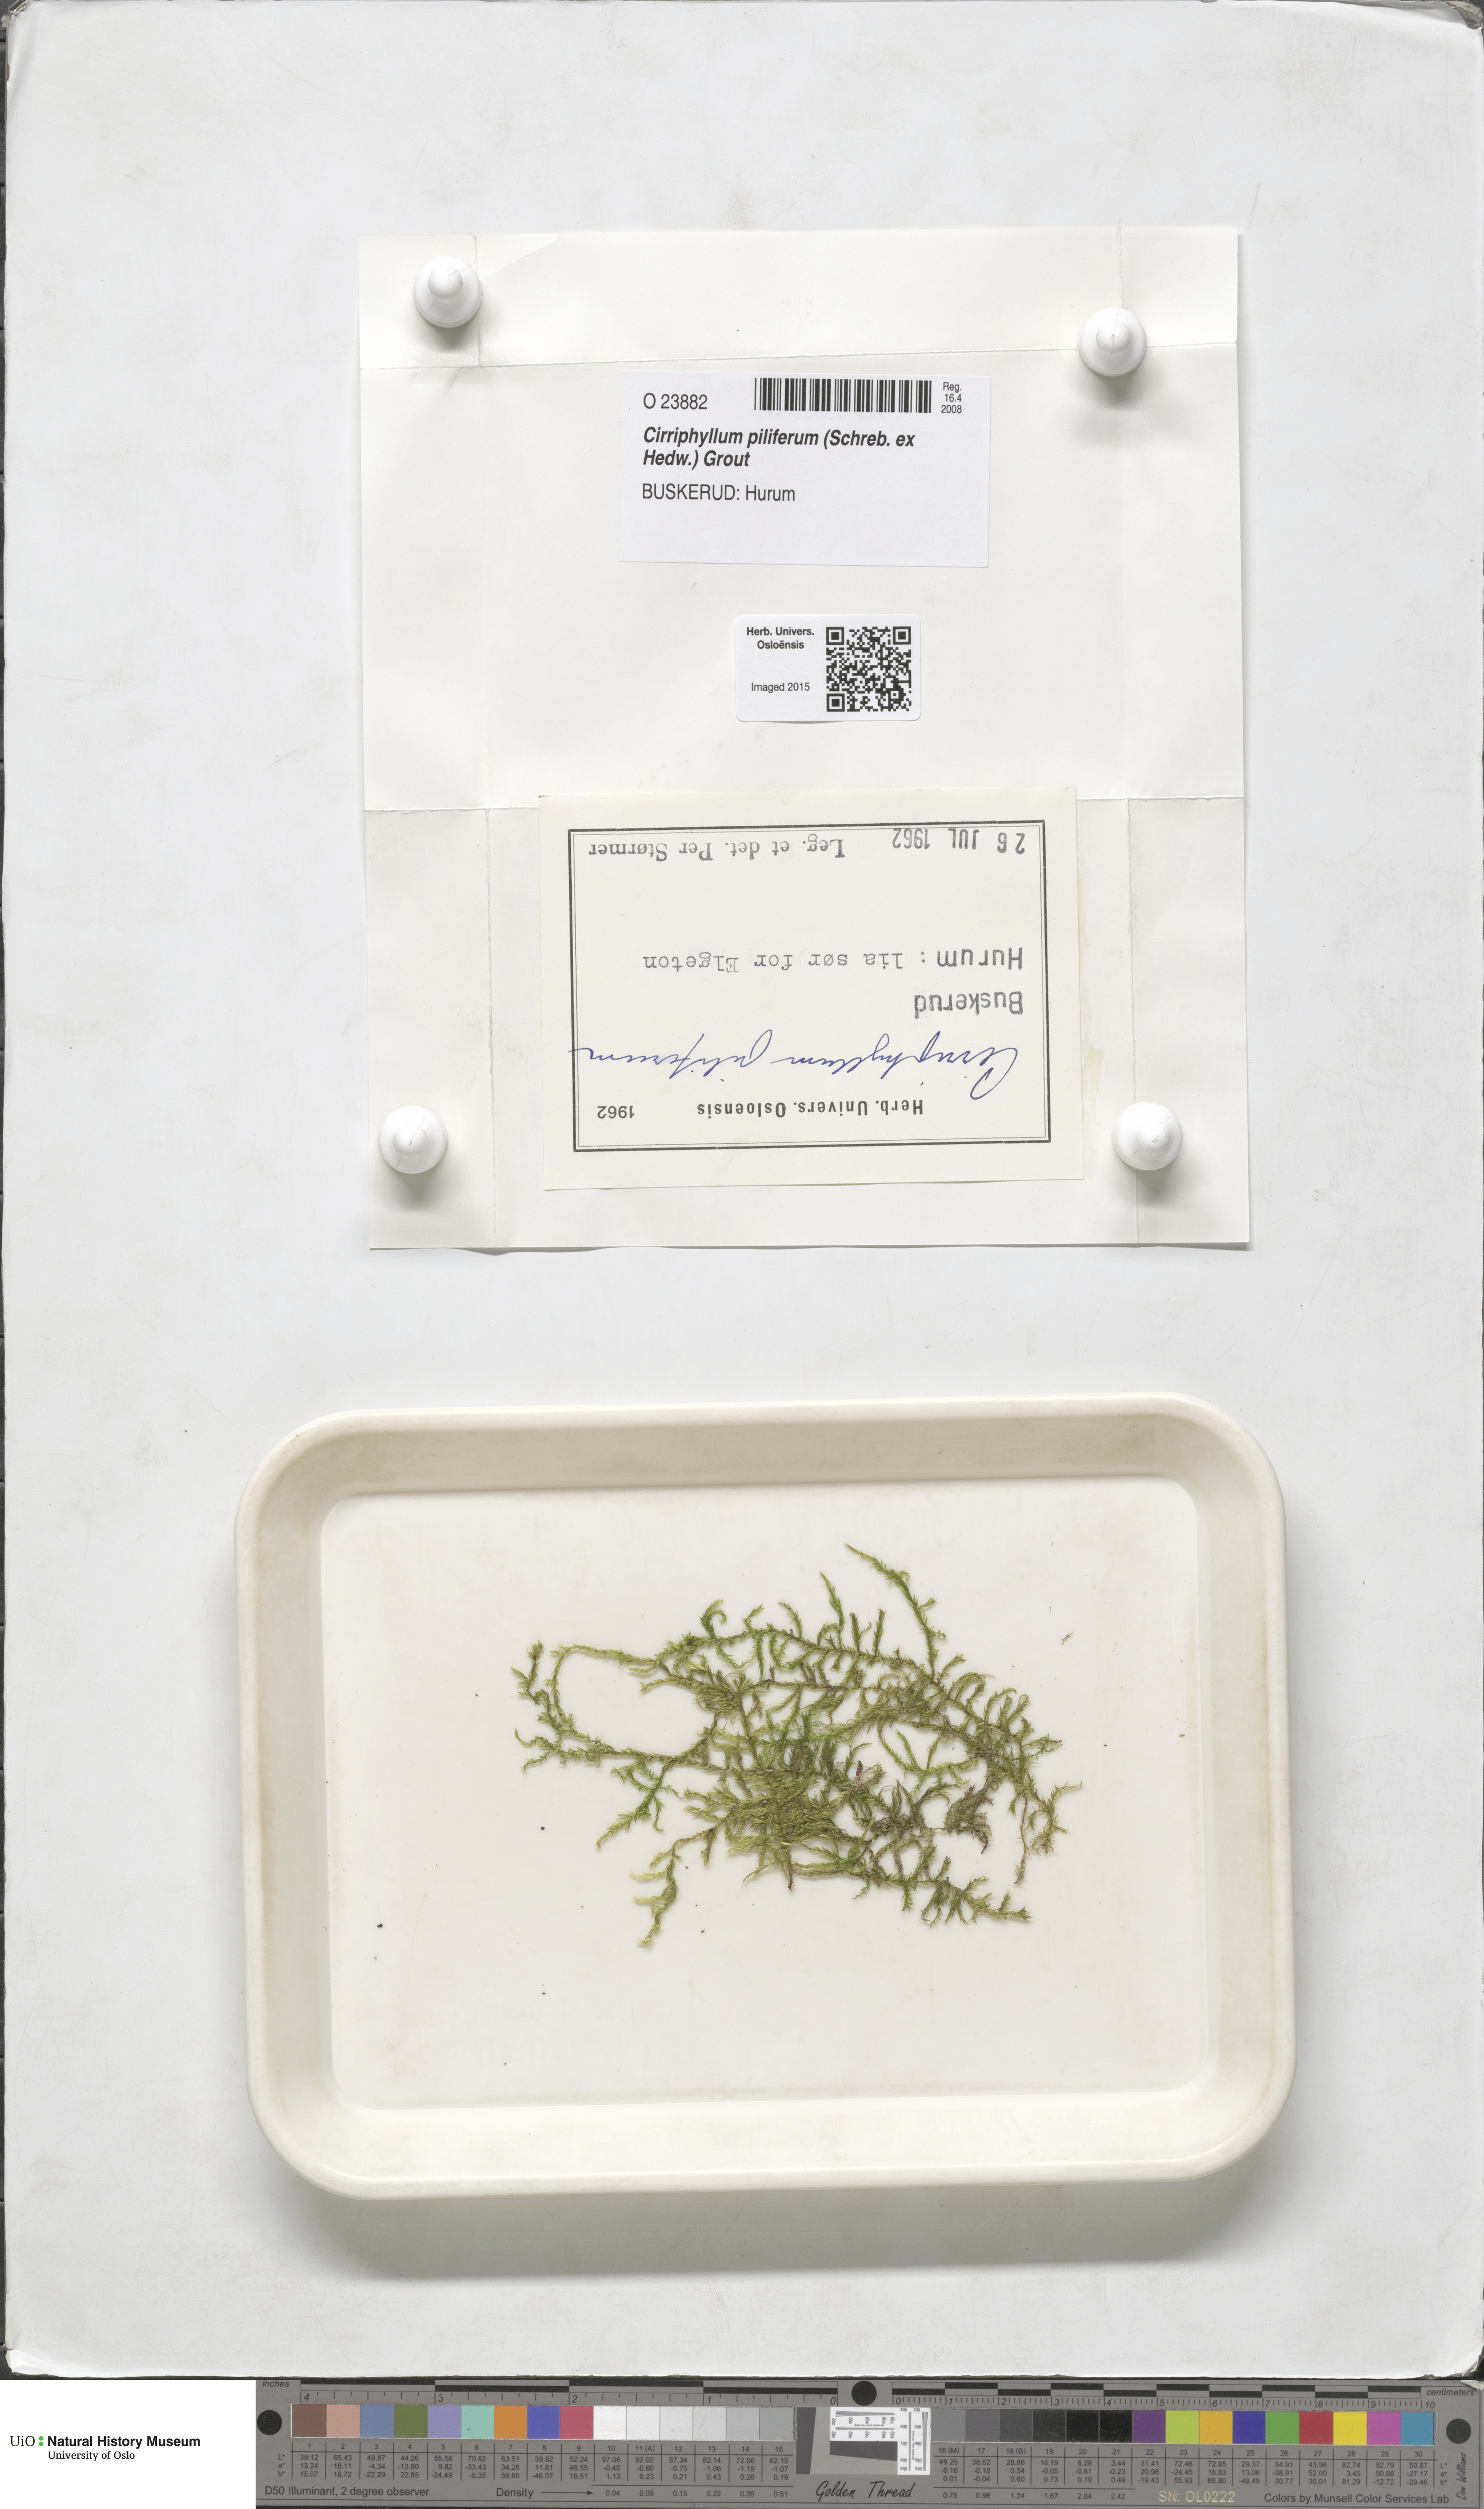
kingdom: Plantae
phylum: Bryophyta
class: Bryopsida
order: Hypnales
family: Brachytheciaceae
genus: Cirriphyllum
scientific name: Cirriphyllum piliferum
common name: Hair-pointed moss
